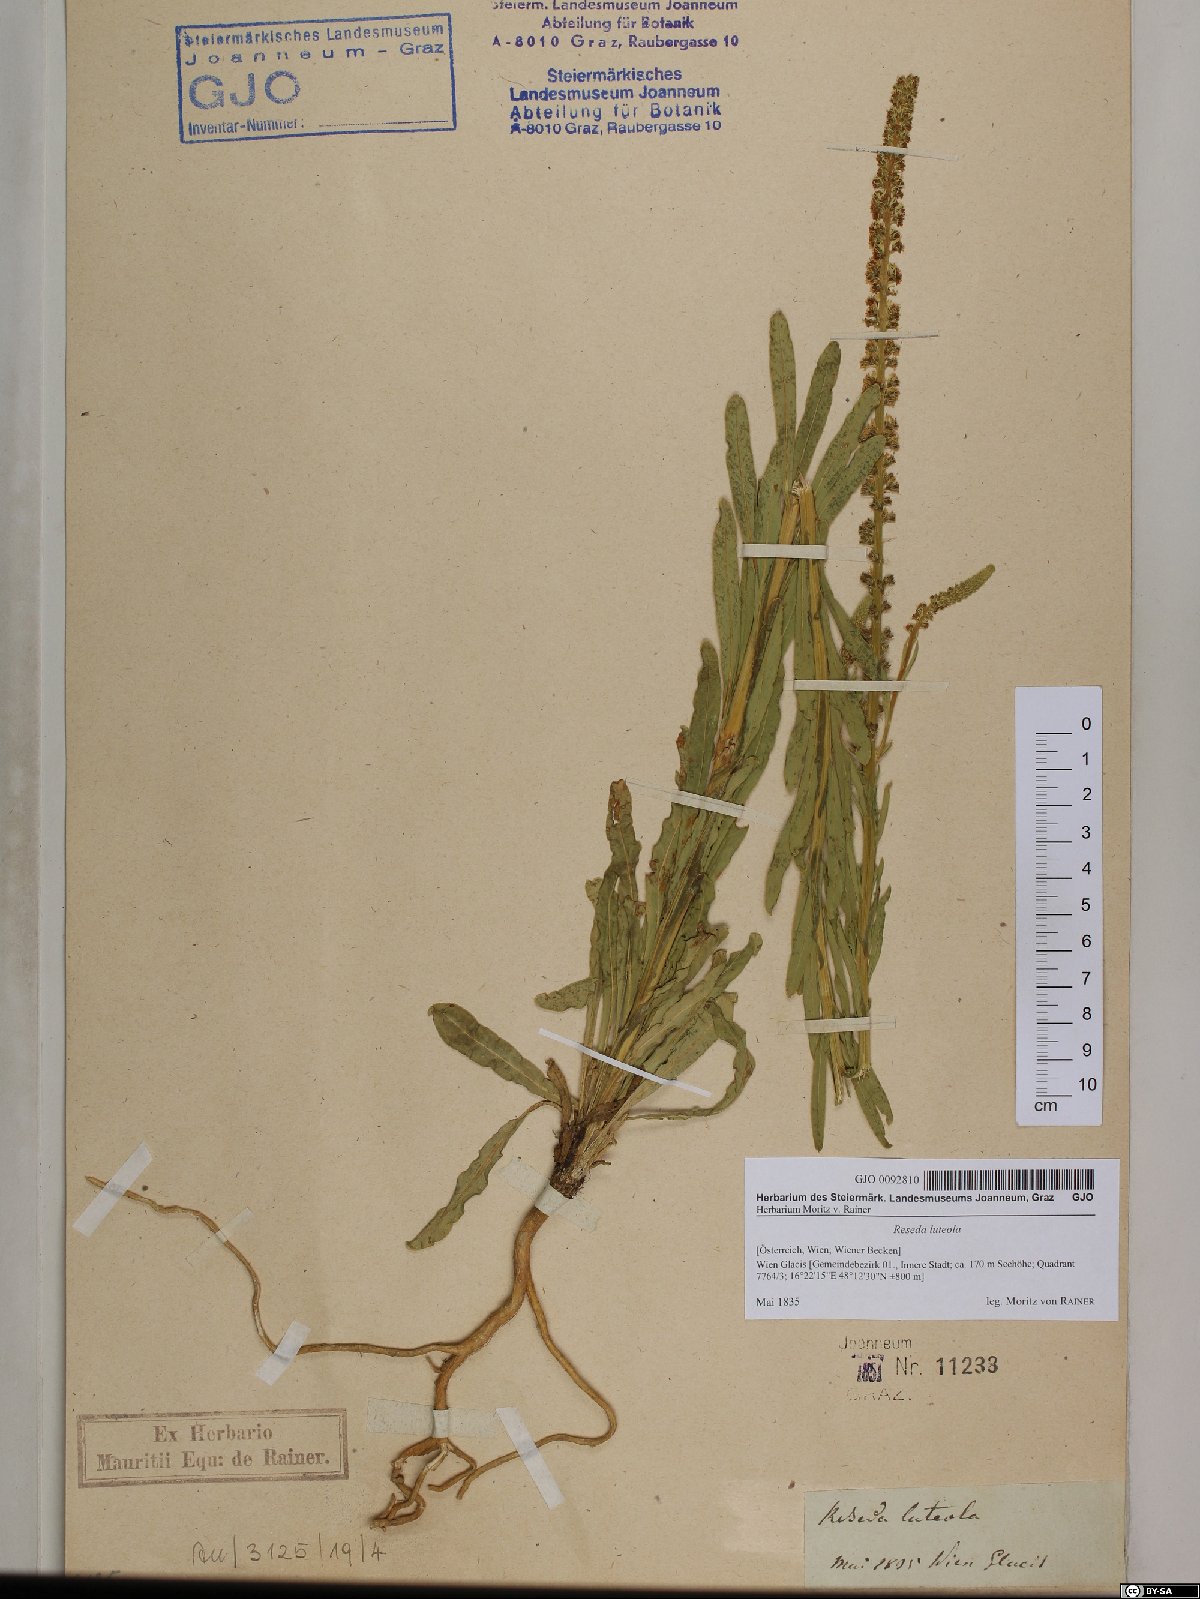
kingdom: Plantae
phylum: Tracheophyta
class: Magnoliopsida
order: Brassicales
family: Resedaceae
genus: Reseda
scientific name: Reseda luteola
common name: Weld
